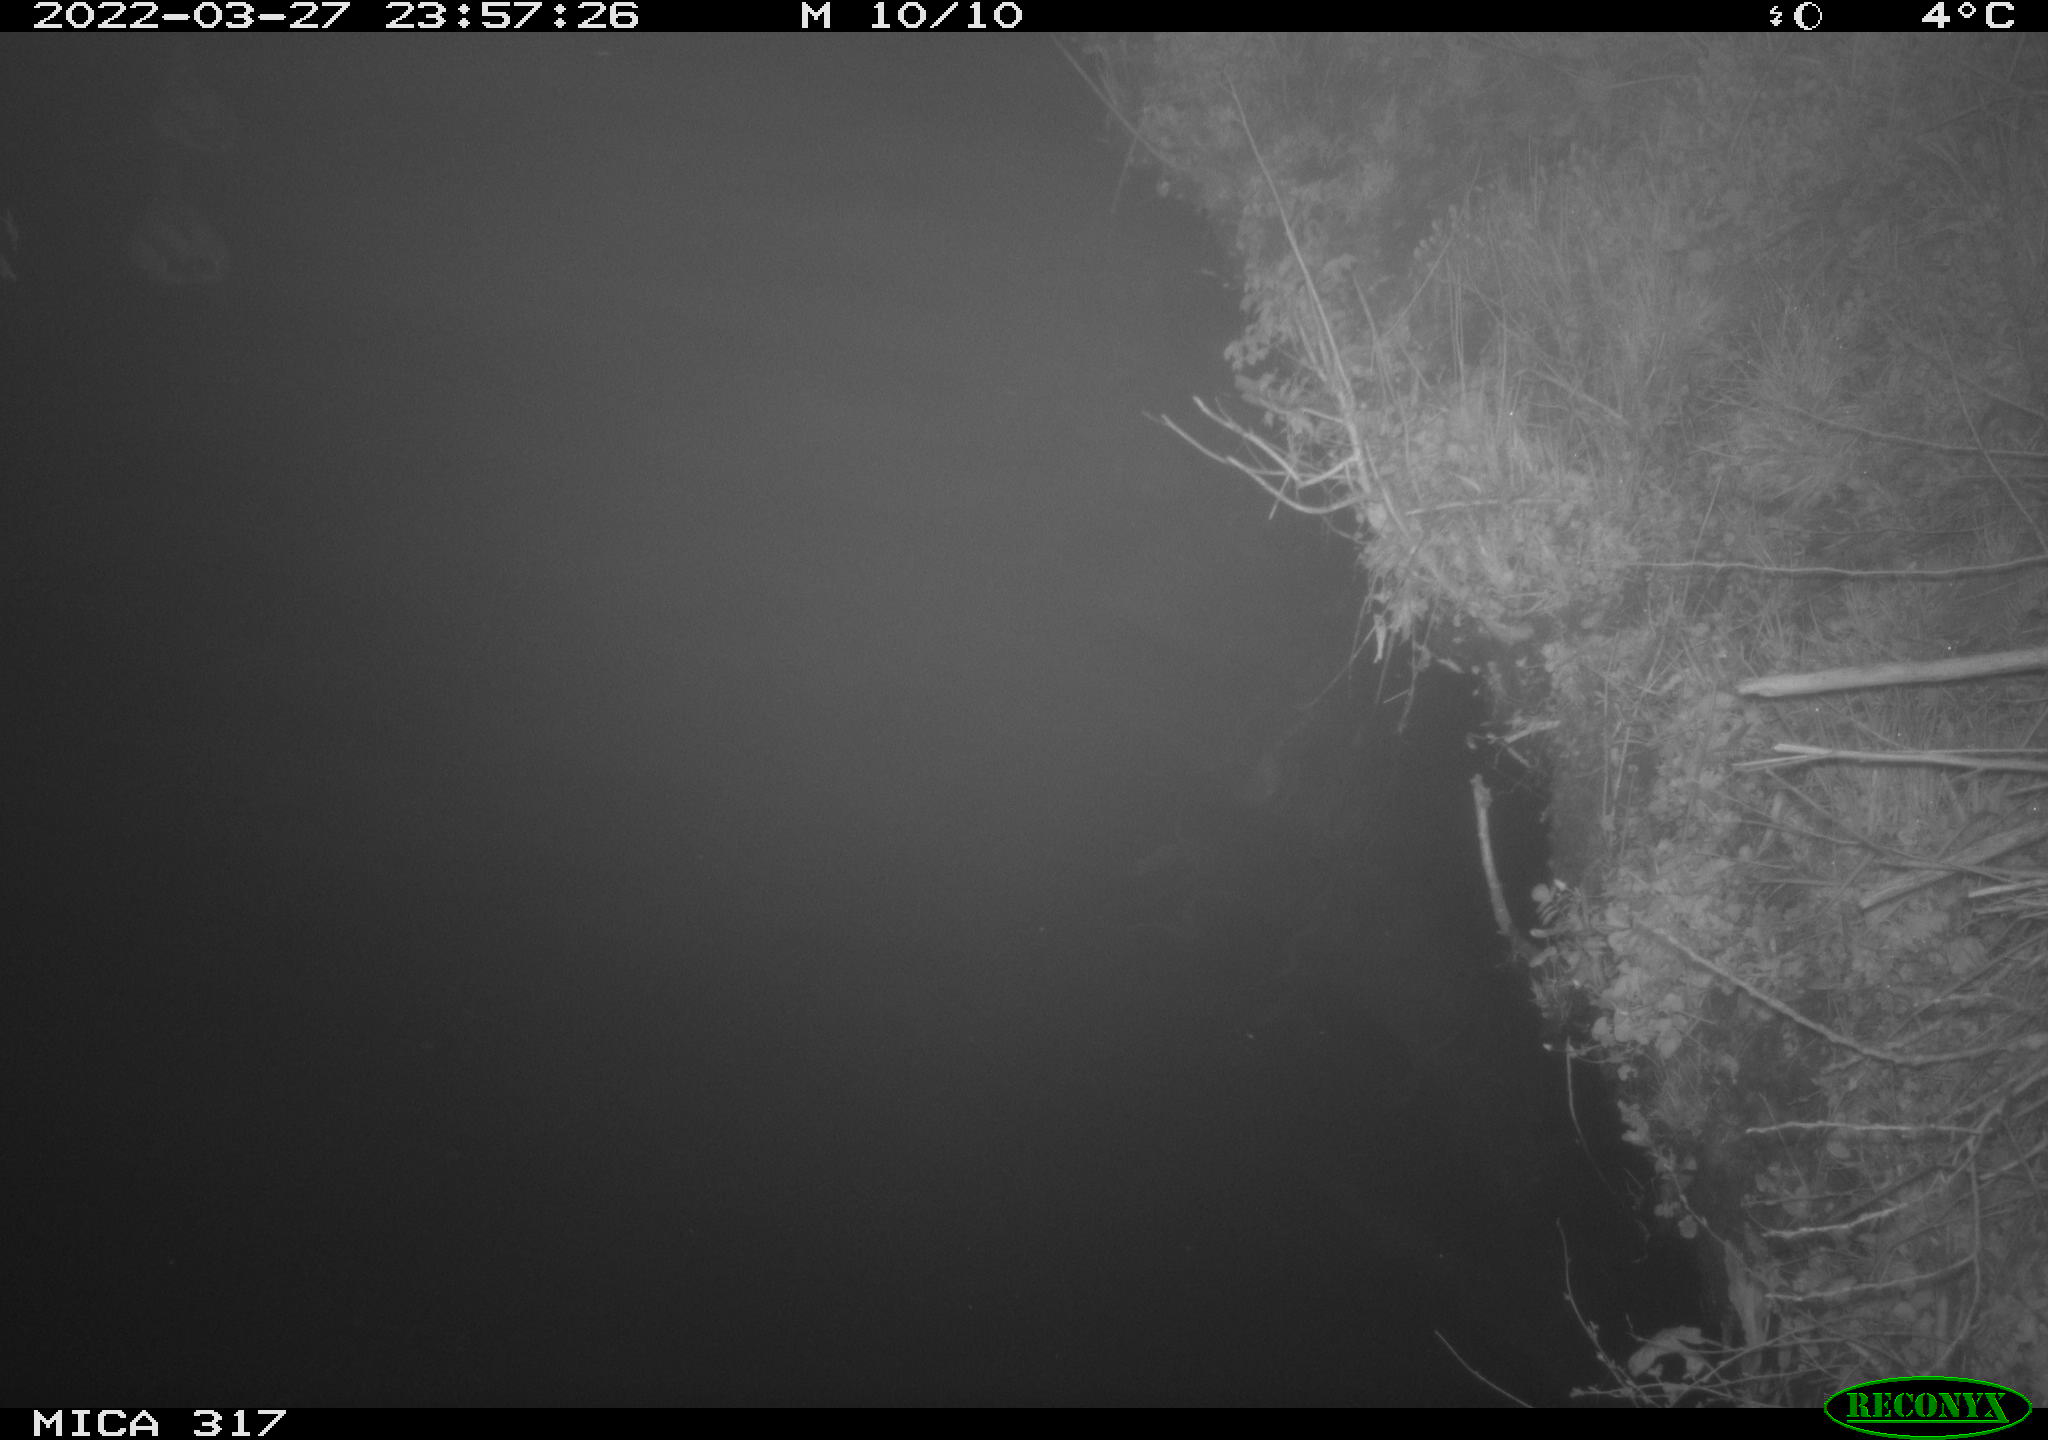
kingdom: Animalia
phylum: Chordata
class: Aves
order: Anseriformes
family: Anatidae
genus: Anas
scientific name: Anas platyrhynchos
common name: Mallard
